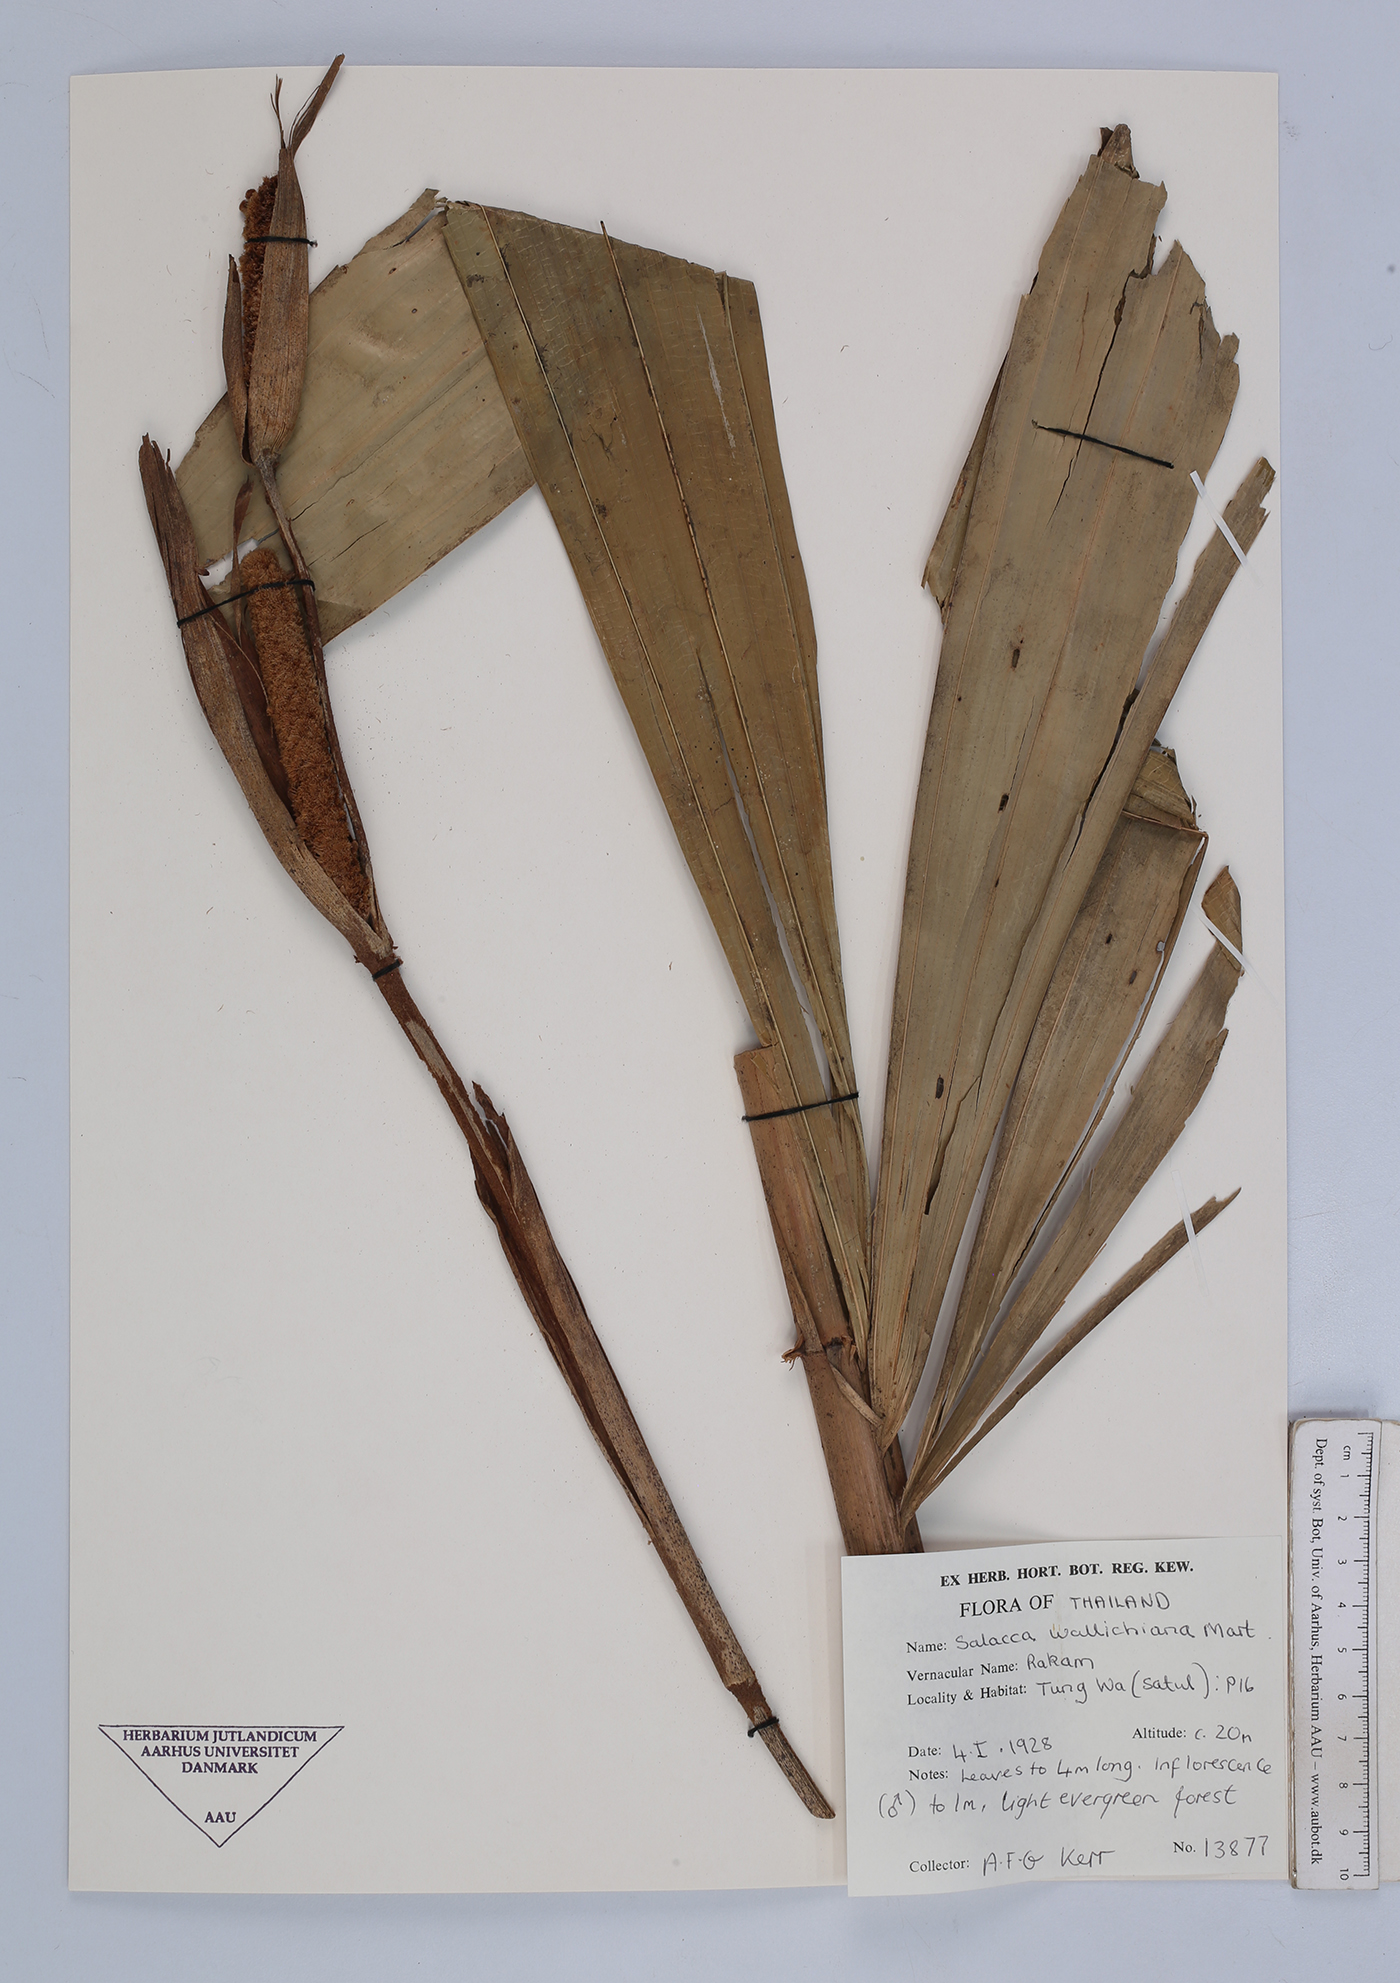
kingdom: Plantae
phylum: Tracheophyta
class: Liliopsida
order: Arecales
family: Arecaceae
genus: Salacca
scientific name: Salacca wallichiana
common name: Rakum palm
